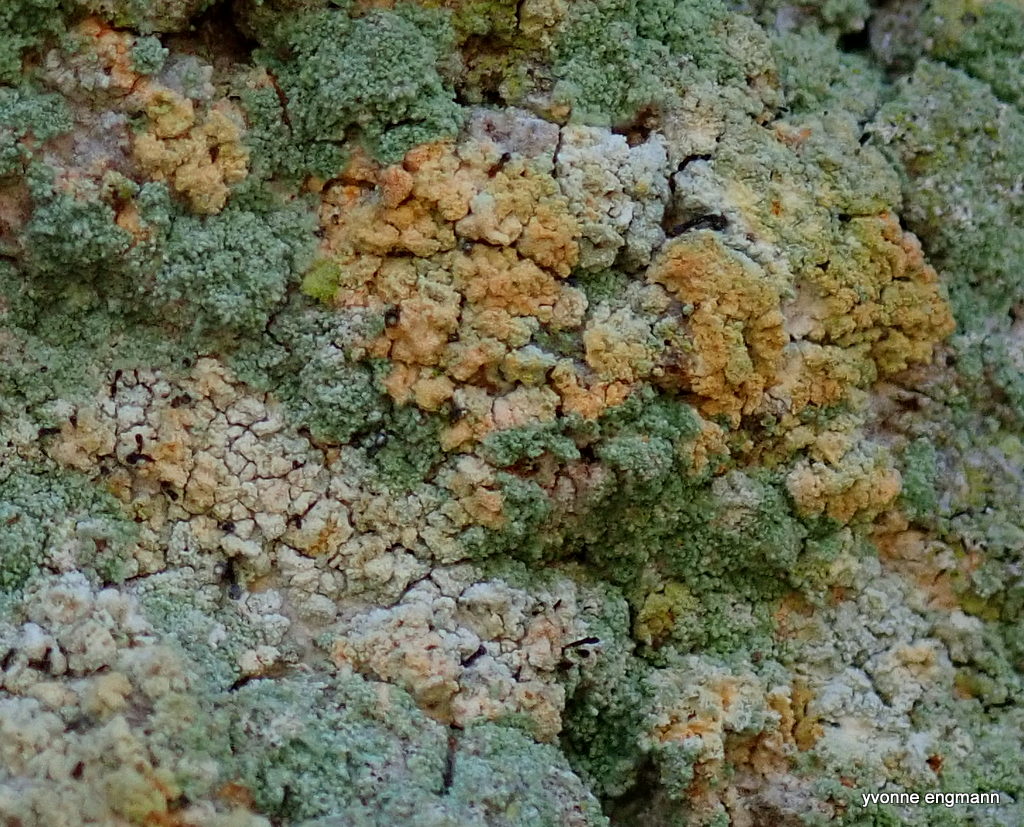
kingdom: Fungi
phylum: Ascomycota
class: Coniocybomycetes
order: Coniocybales
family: Coniocybaceae
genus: Chaenotheca
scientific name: Chaenotheca ferruginea
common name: rustbrun knappenålslav
